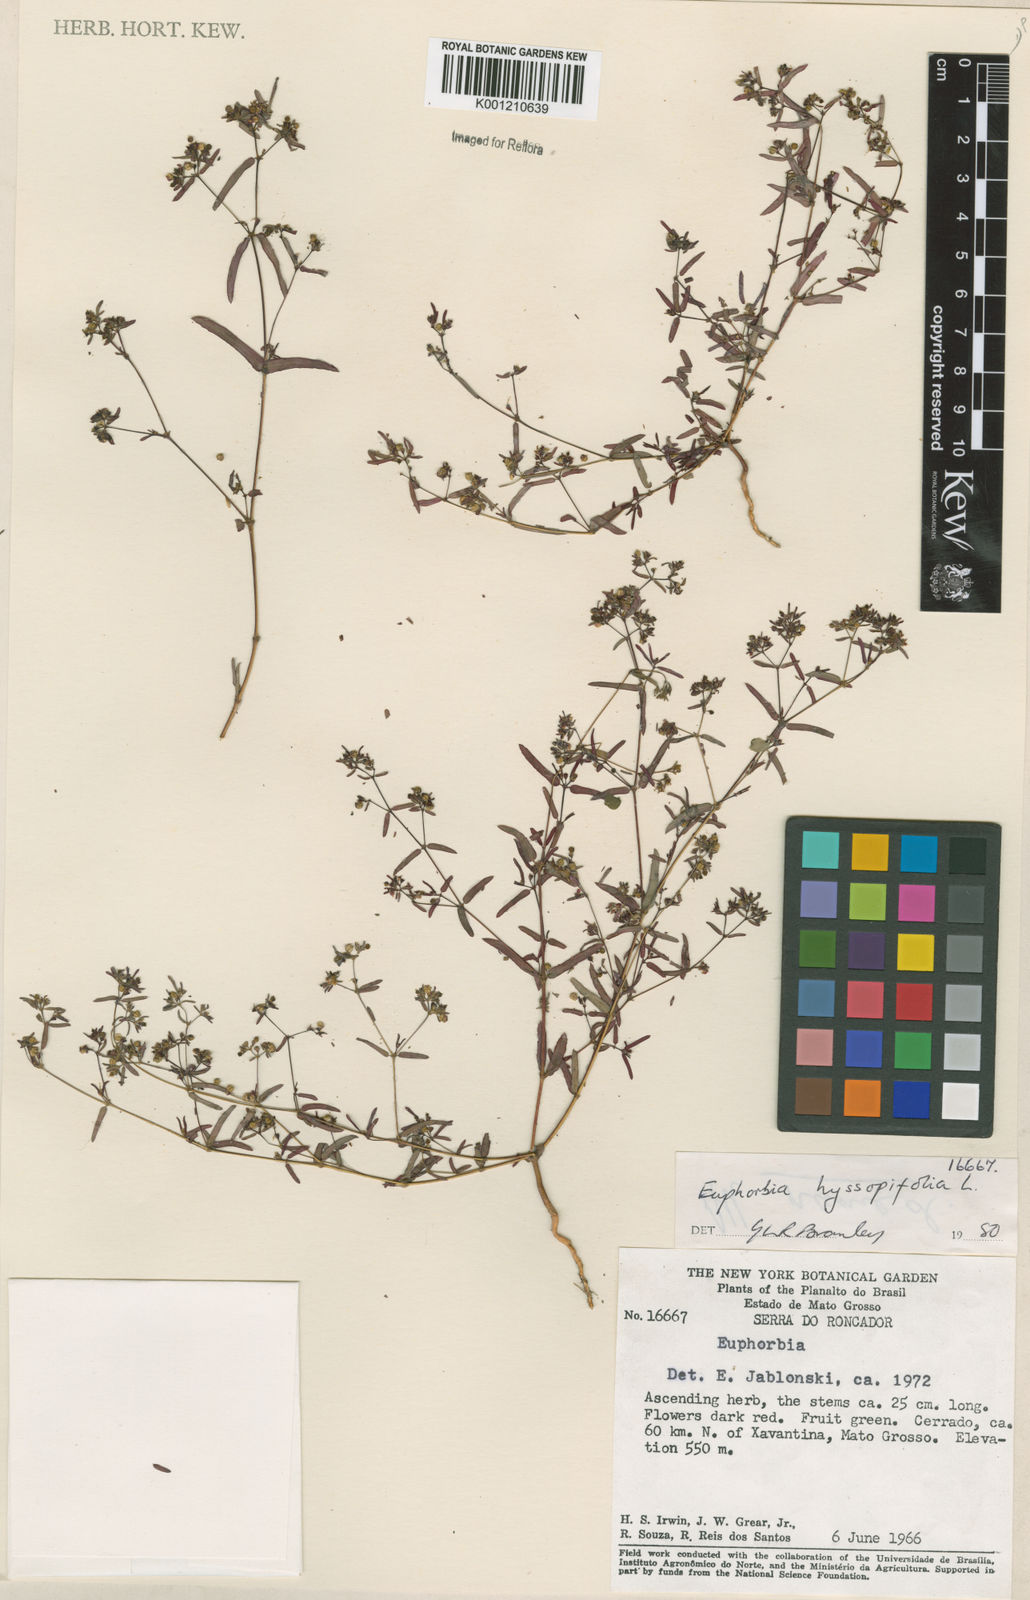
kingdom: Plantae
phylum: Tracheophyta
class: Magnoliopsida
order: Malpighiales
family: Euphorbiaceae
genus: Euphorbia
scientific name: Euphorbia hyssopifolia
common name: Hyssopleaf sandmat
